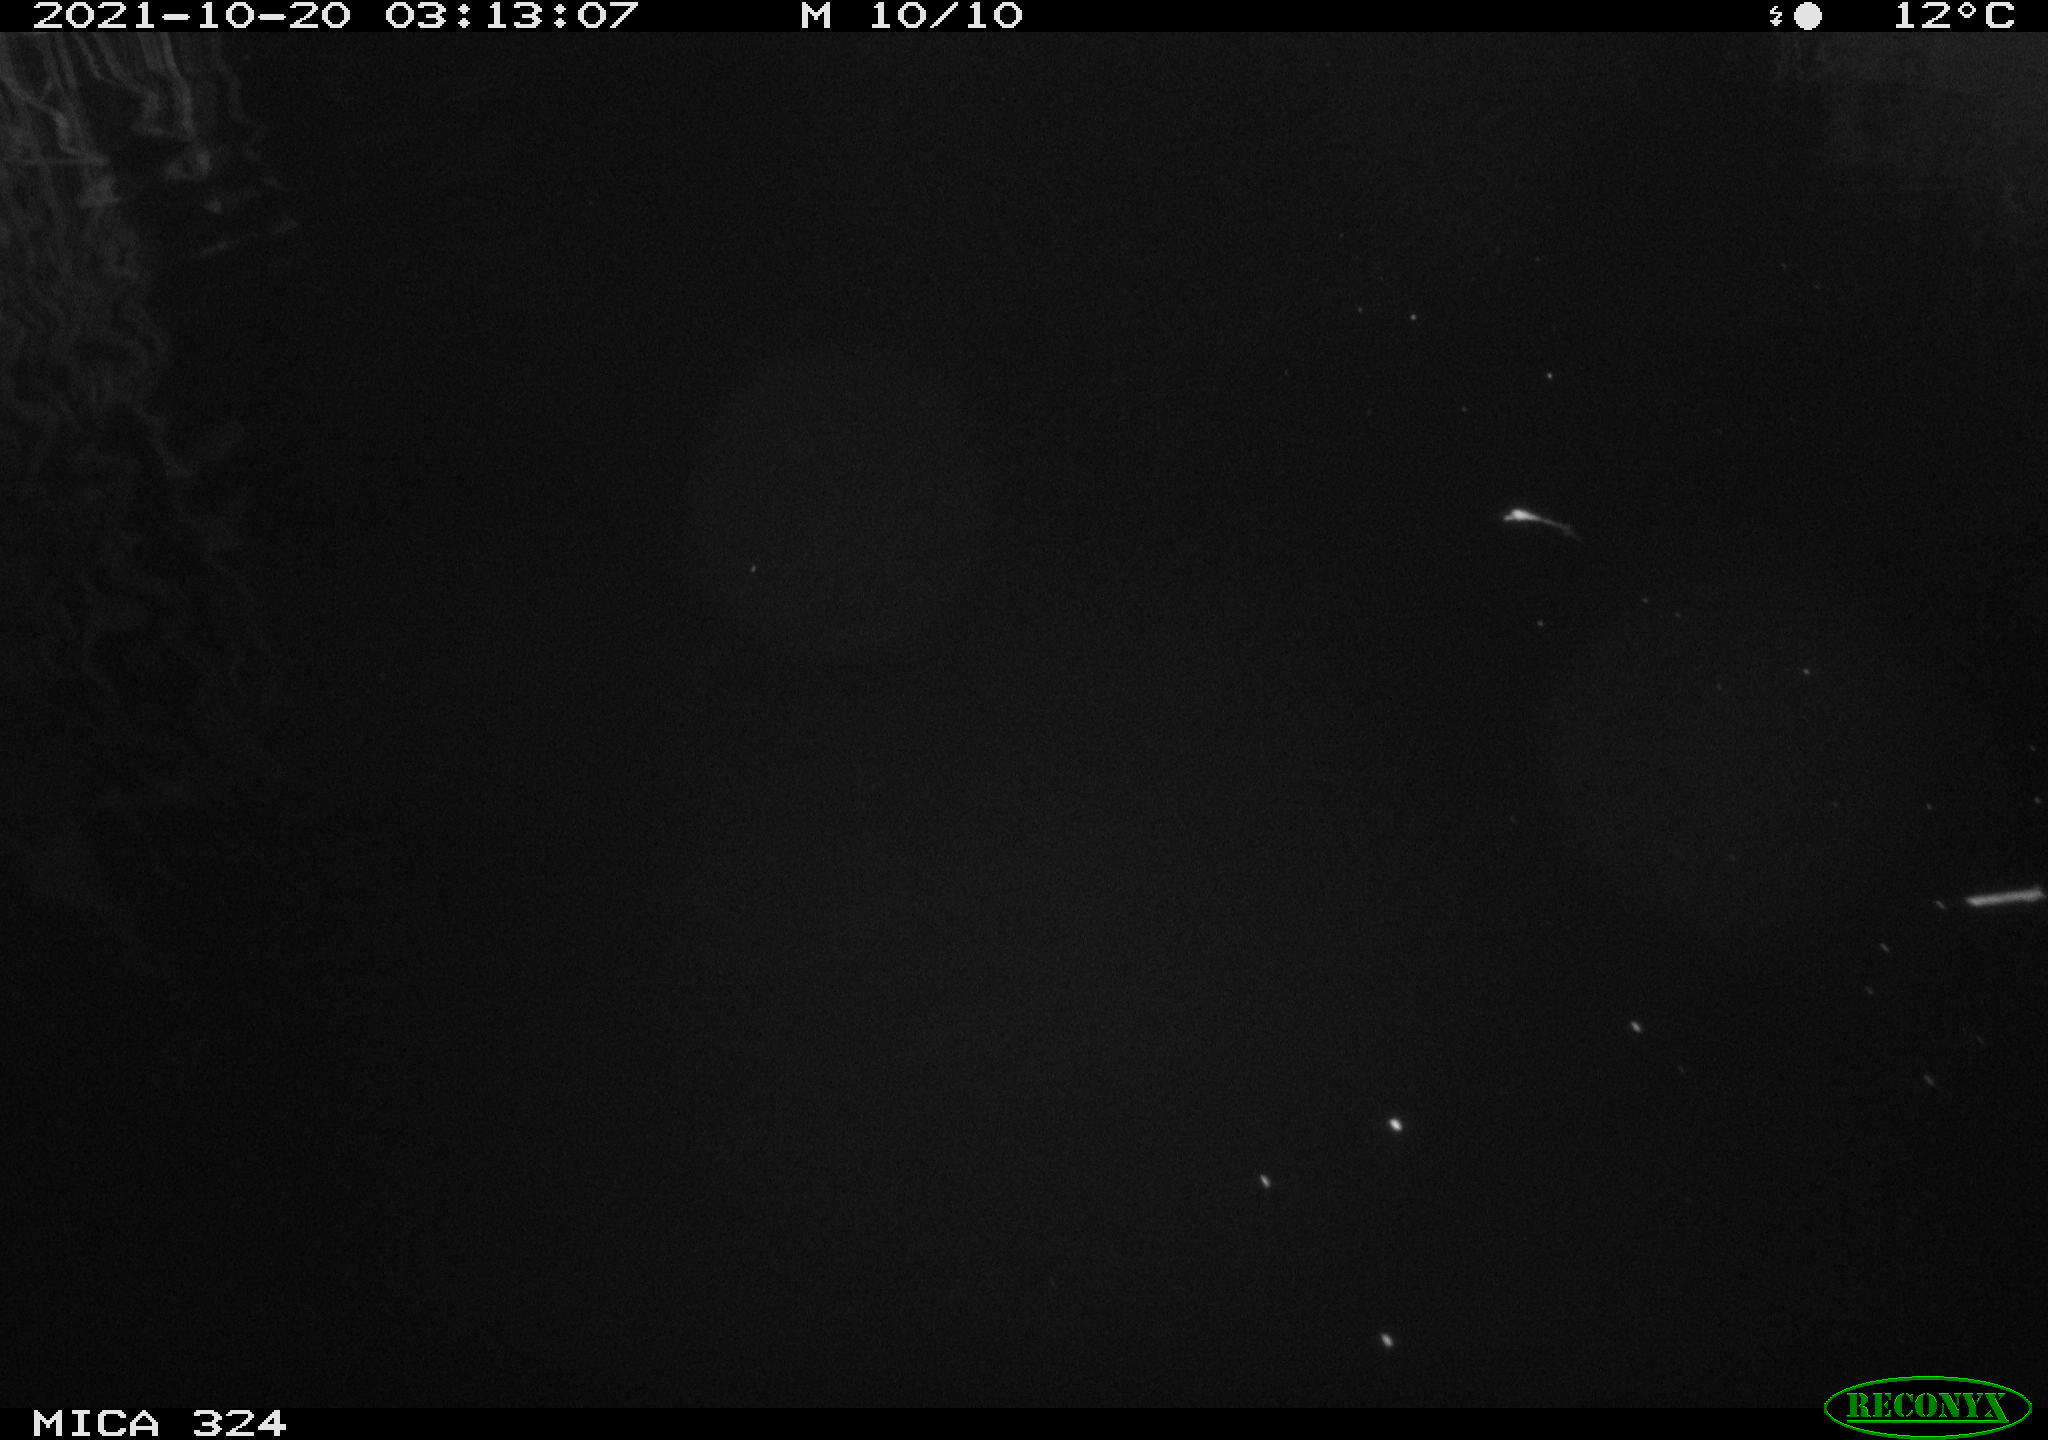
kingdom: Animalia
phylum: Chordata
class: Mammalia
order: Rodentia
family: Cricetidae
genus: Ondatra
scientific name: Ondatra zibethicus
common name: Muskrat
